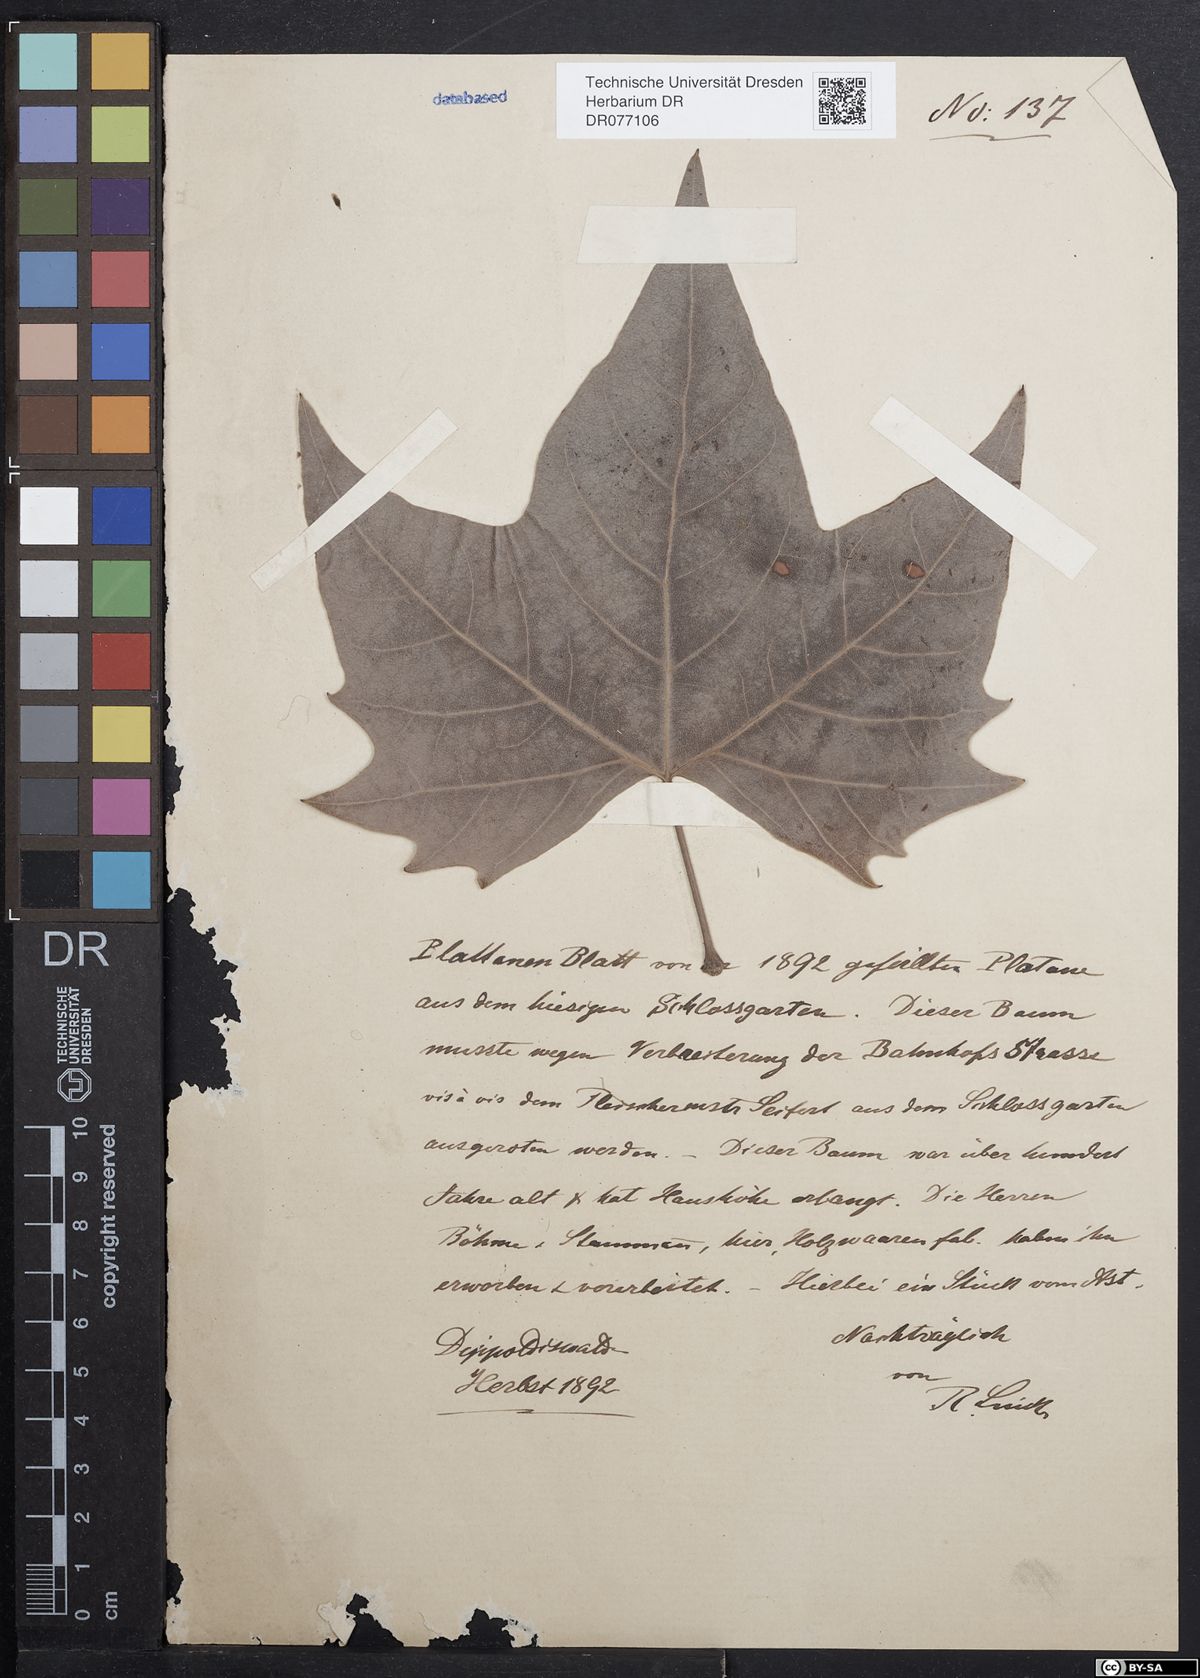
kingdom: Plantae
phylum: Tracheophyta
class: Magnoliopsida
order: Proteales
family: Platanaceae
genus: Platanus
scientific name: Platanus
